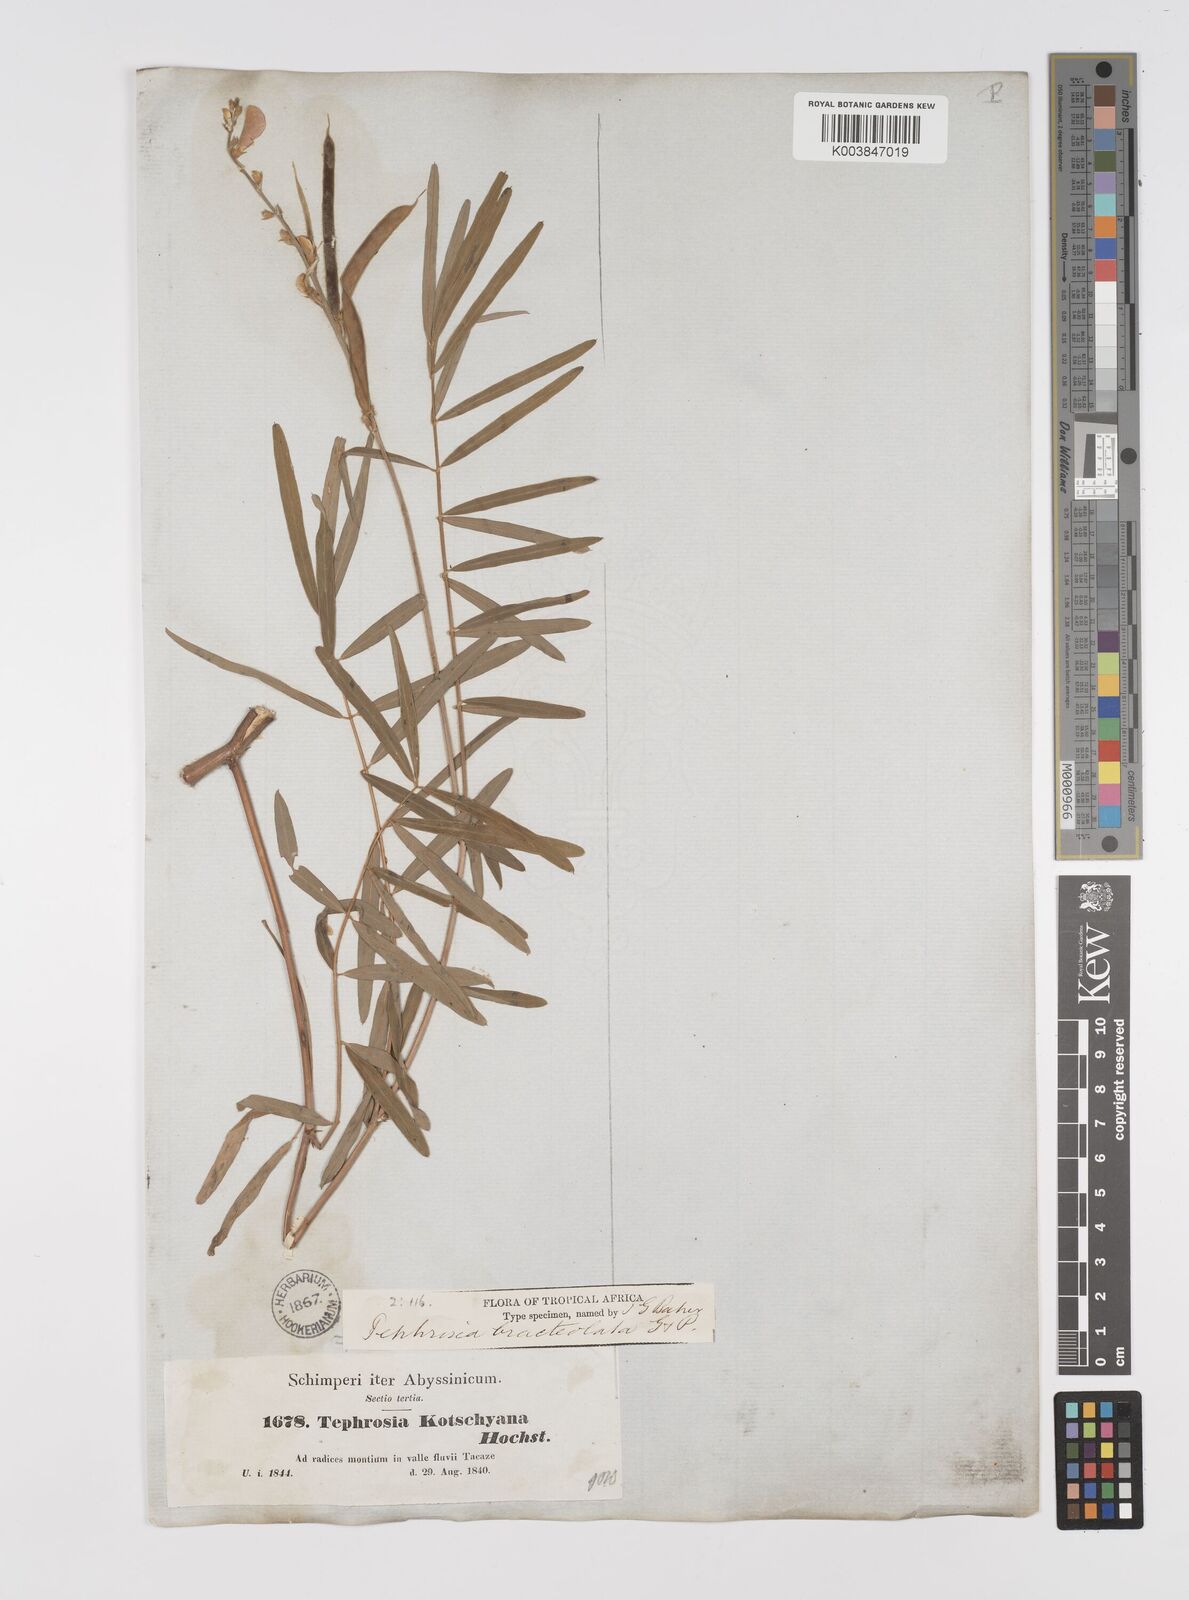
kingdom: Plantae
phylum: Tracheophyta
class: Magnoliopsida
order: Fabales
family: Fabaceae
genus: Tephrosia
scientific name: Tephrosia bracteolata
